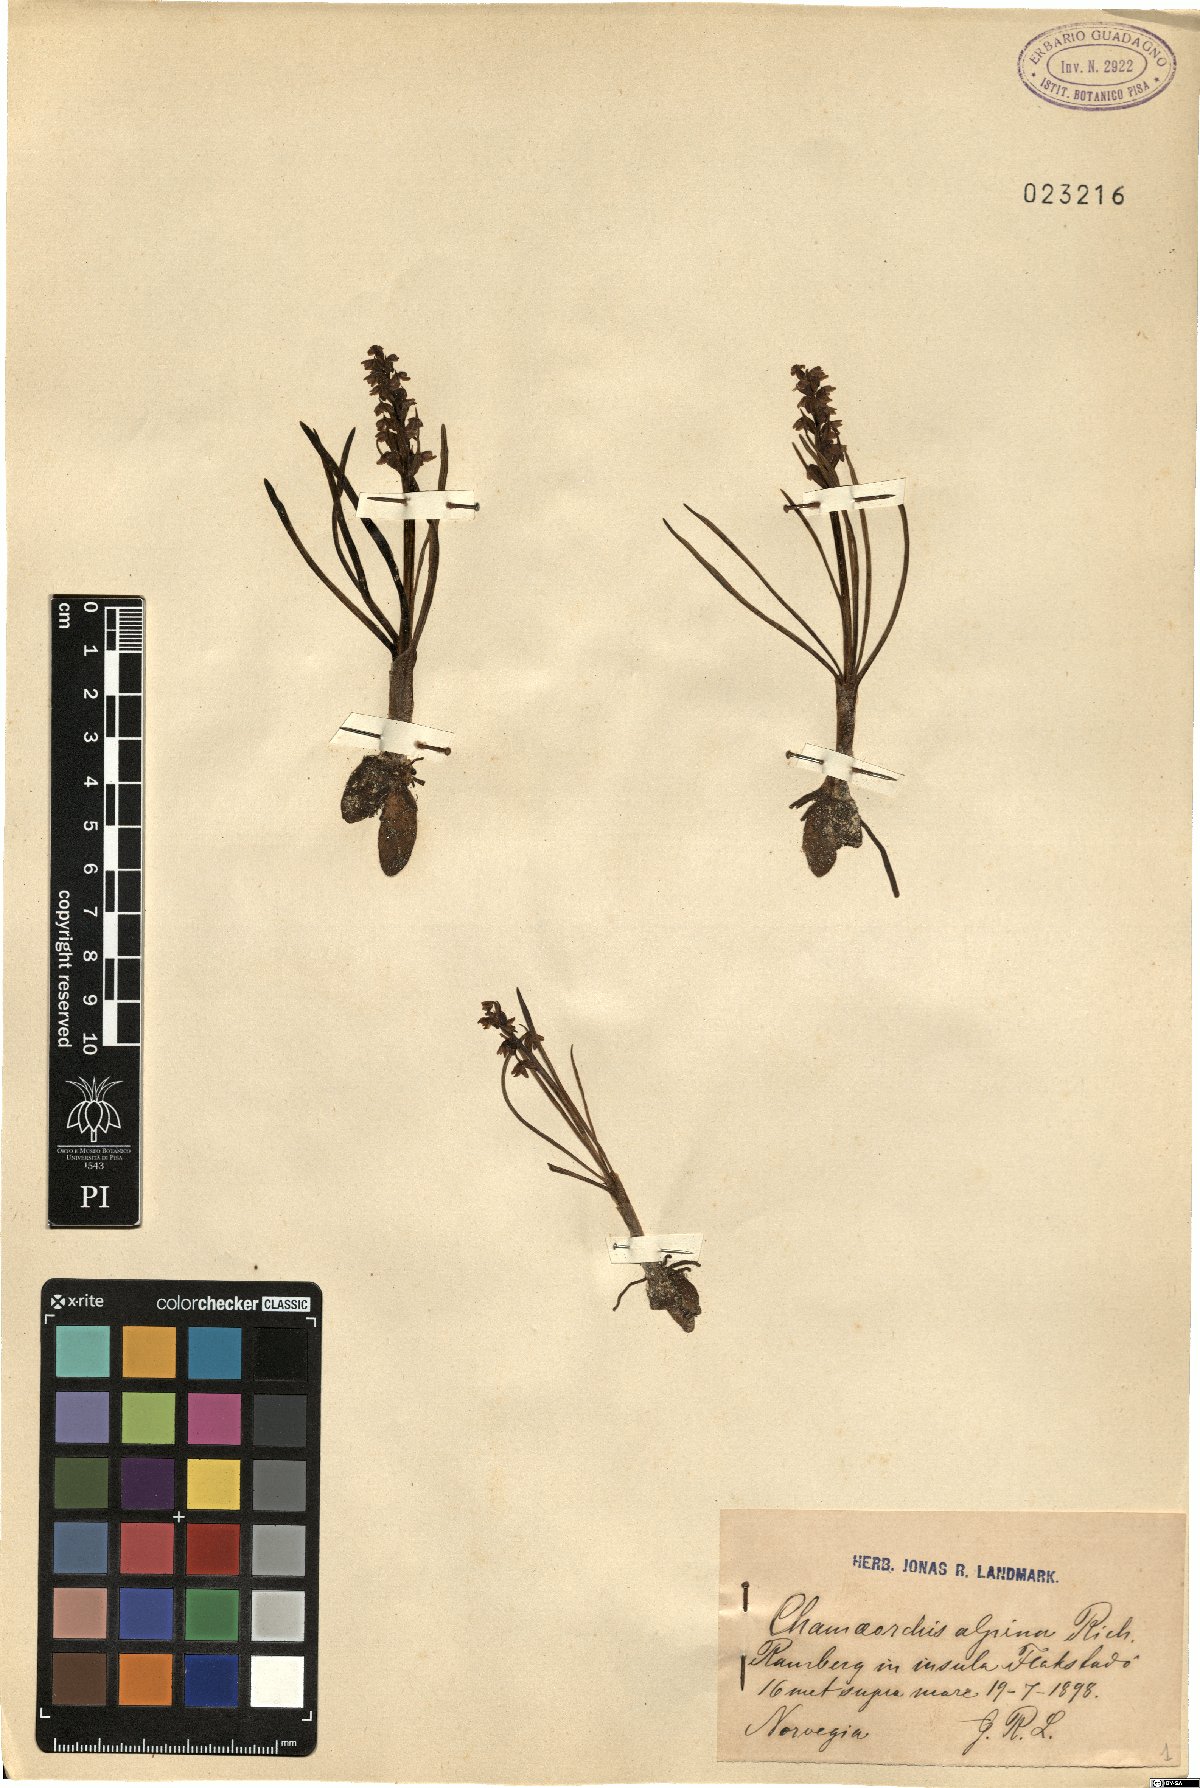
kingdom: Plantae
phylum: Tracheophyta
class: Liliopsida
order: Asparagales
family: Orchidaceae
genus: Chamorchis
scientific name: Chamorchis alpina
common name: Alpine chamorchis
